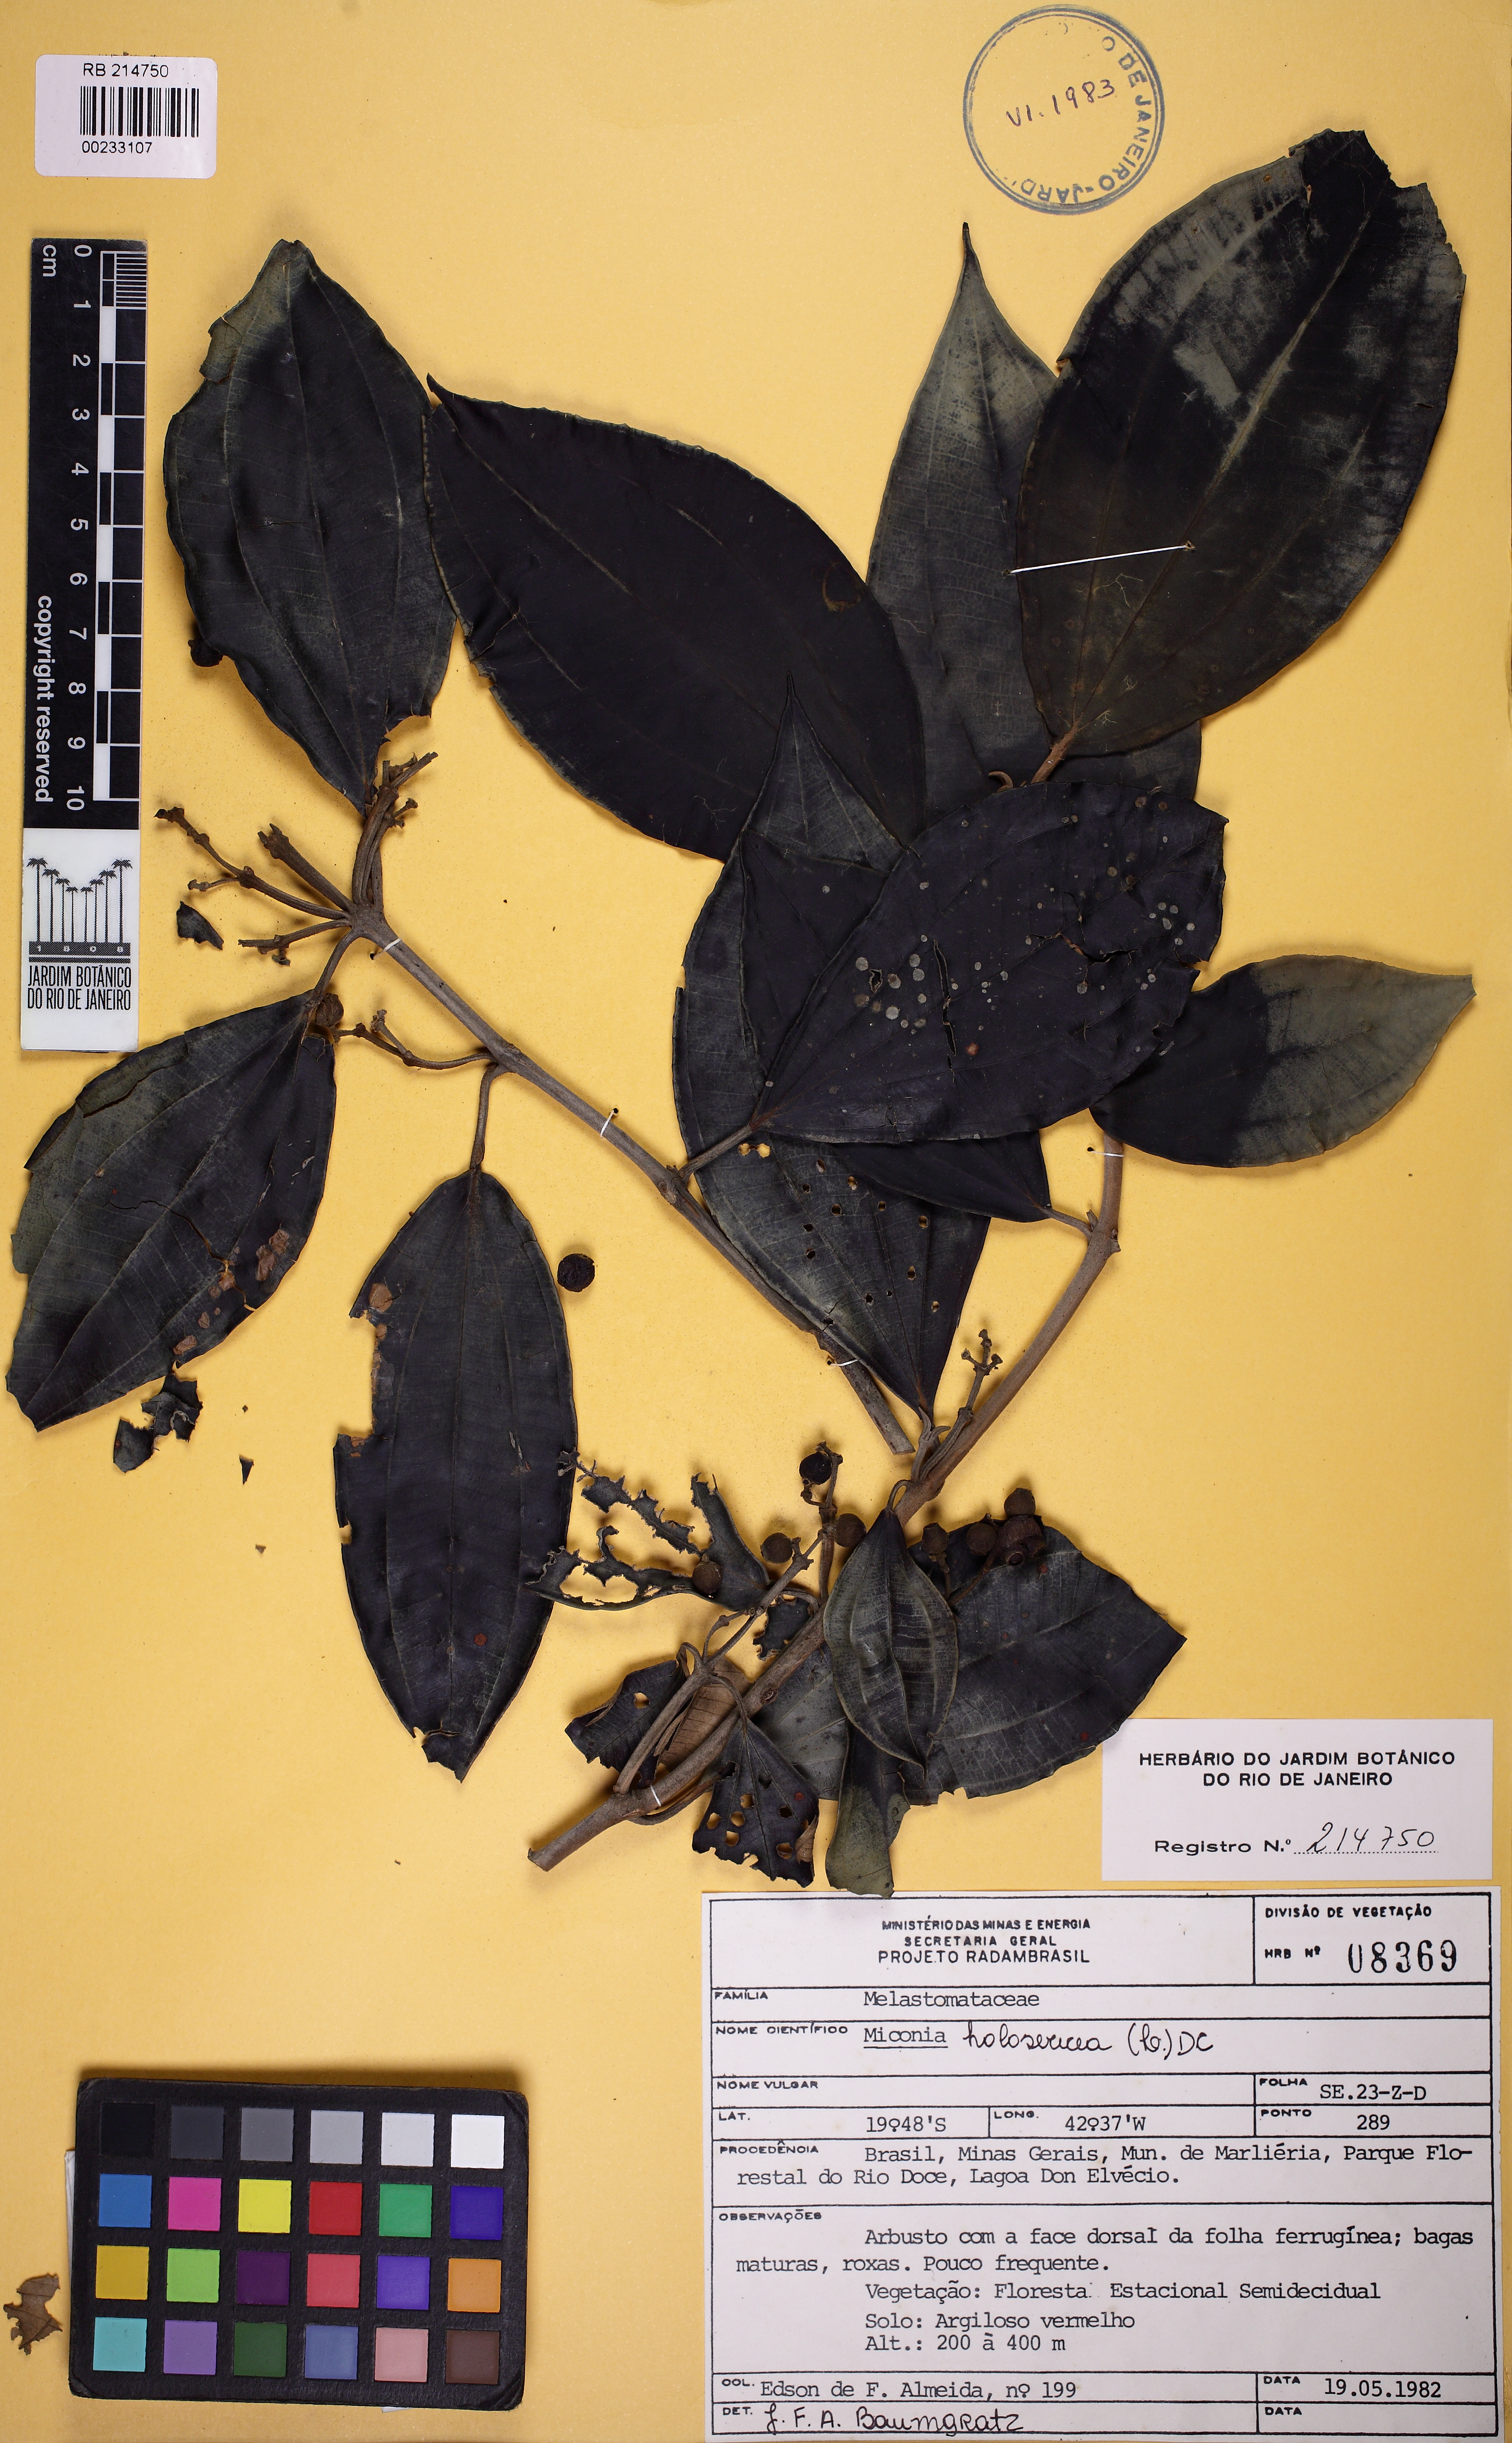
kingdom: Plantae
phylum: Tracheophyta
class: Magnoliopsida
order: Myrtales
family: Melastomataceae
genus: Miconia
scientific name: Miconia holosericea
